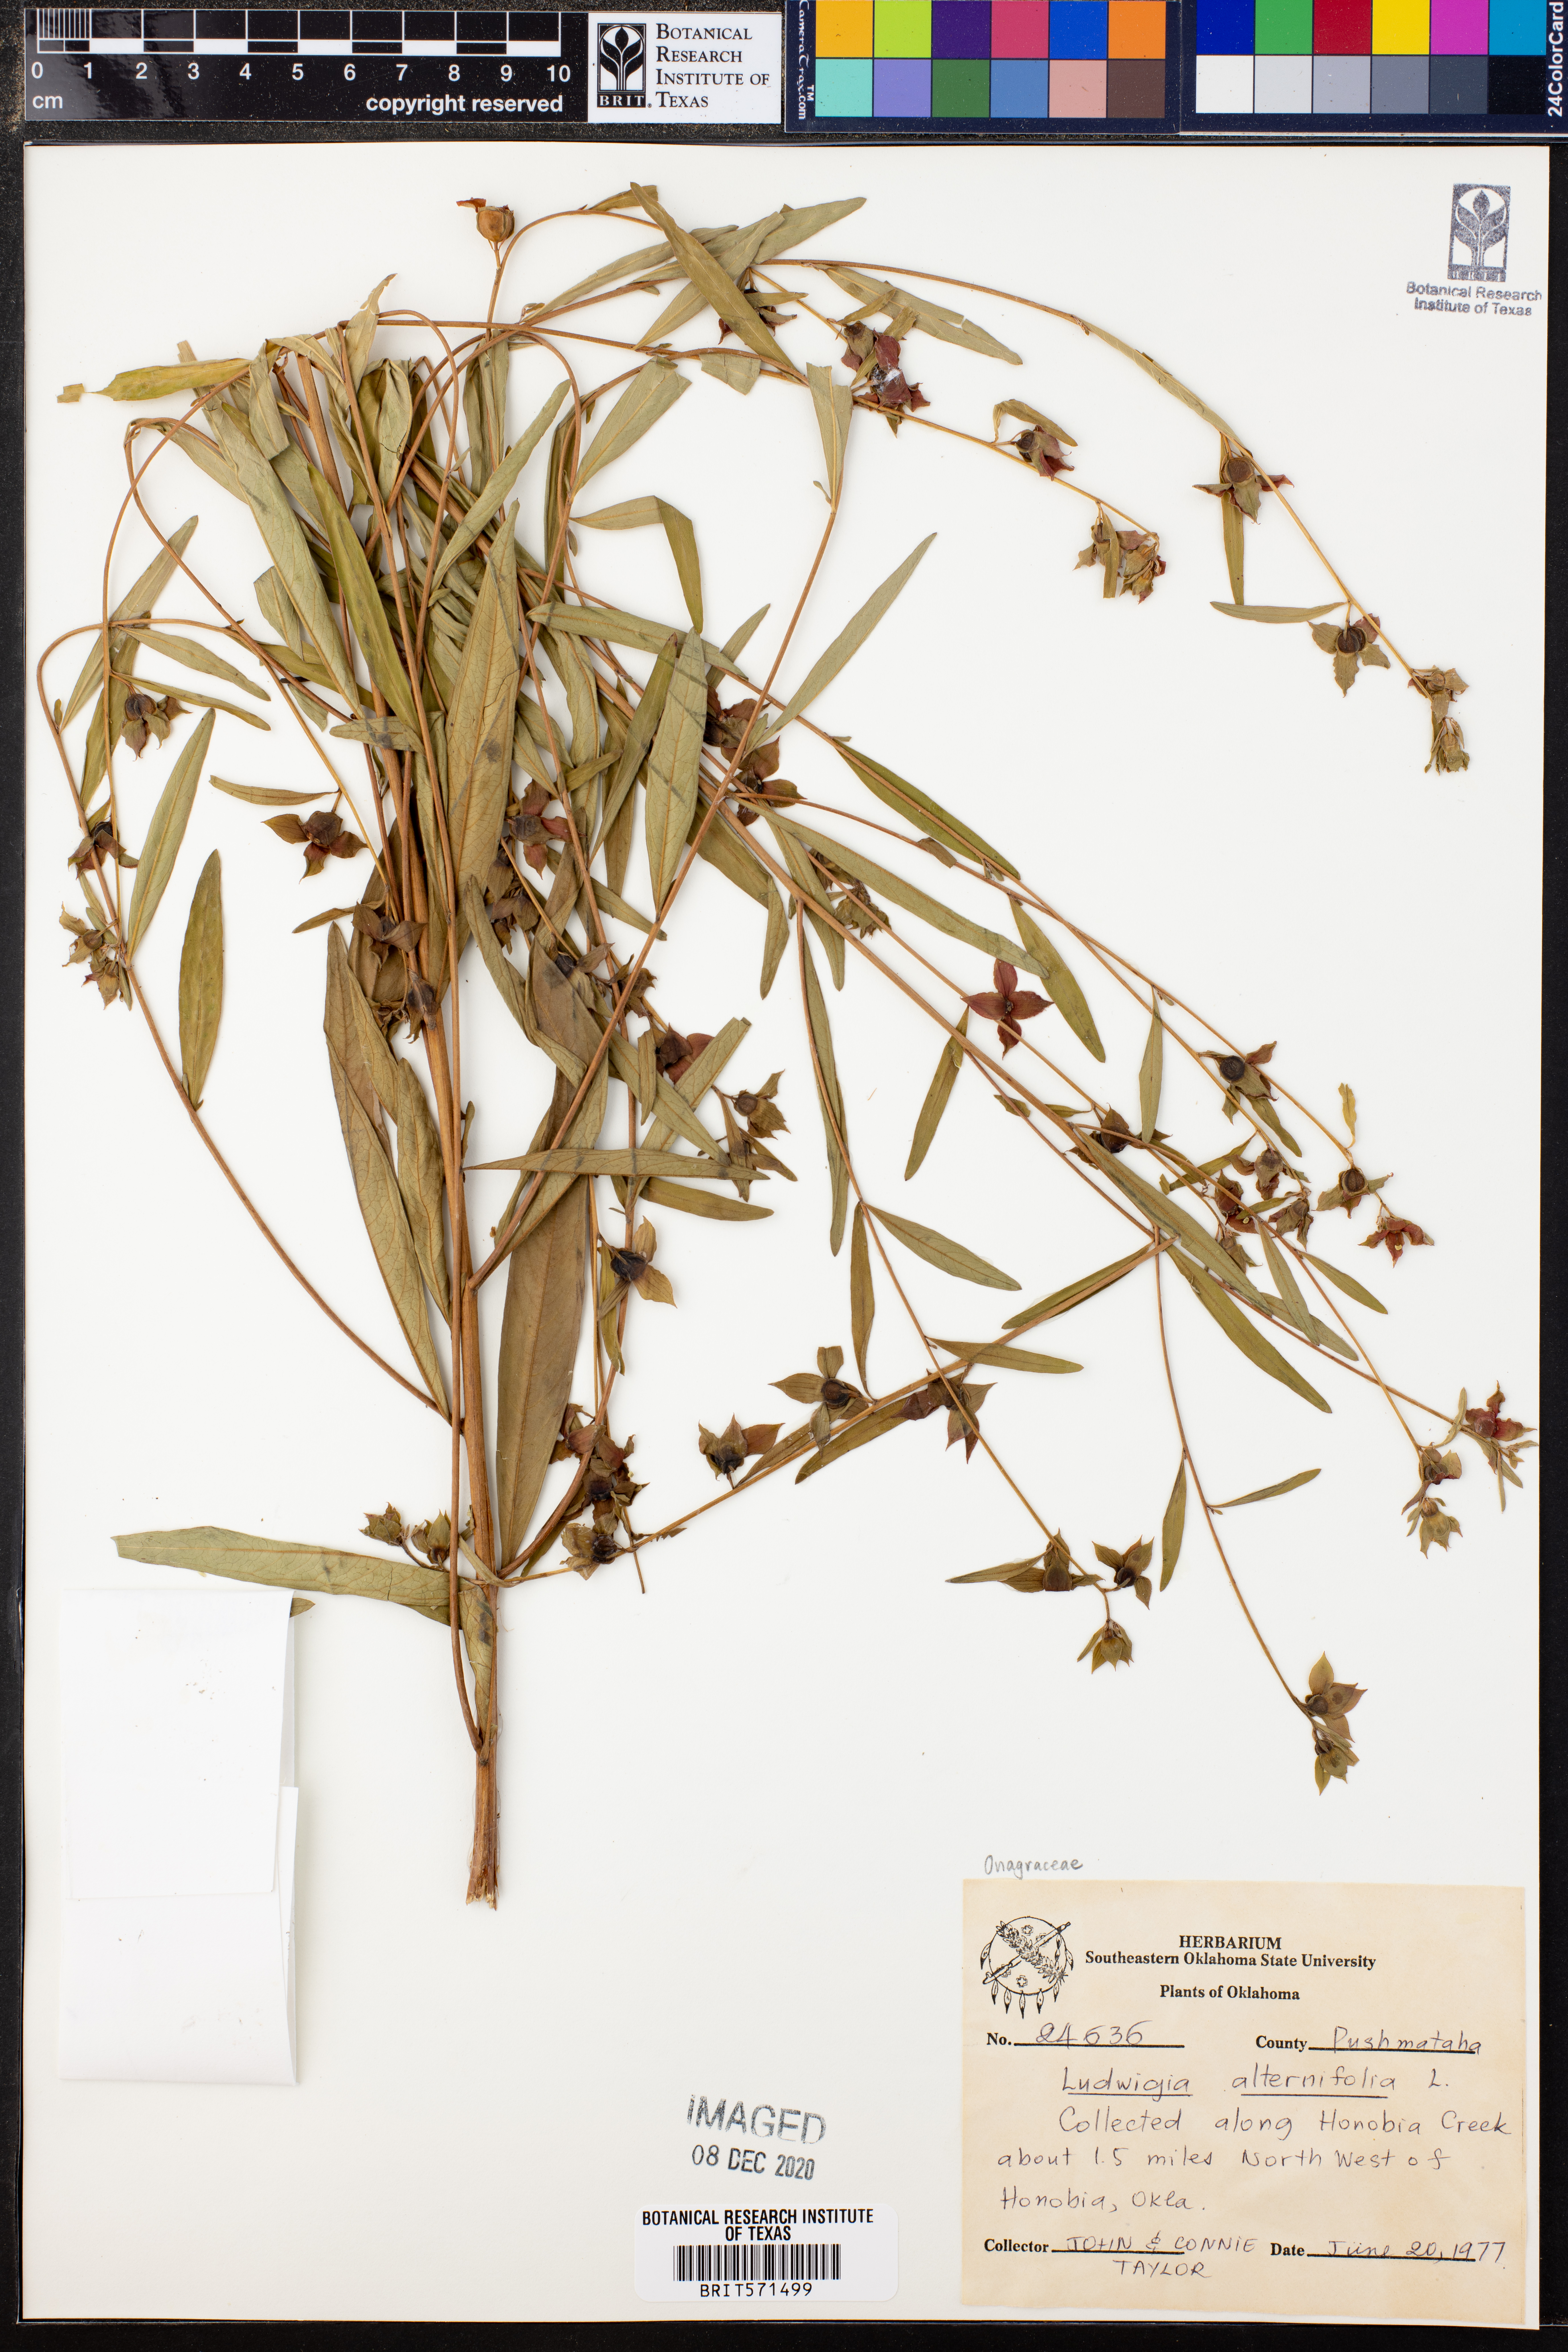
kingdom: Plantae
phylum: Tracheophyta
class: Magnoliopsida
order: Myrtales
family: Onagraceae
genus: Ludwigia
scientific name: Ludwigia alternifolia
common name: Rattlebox
